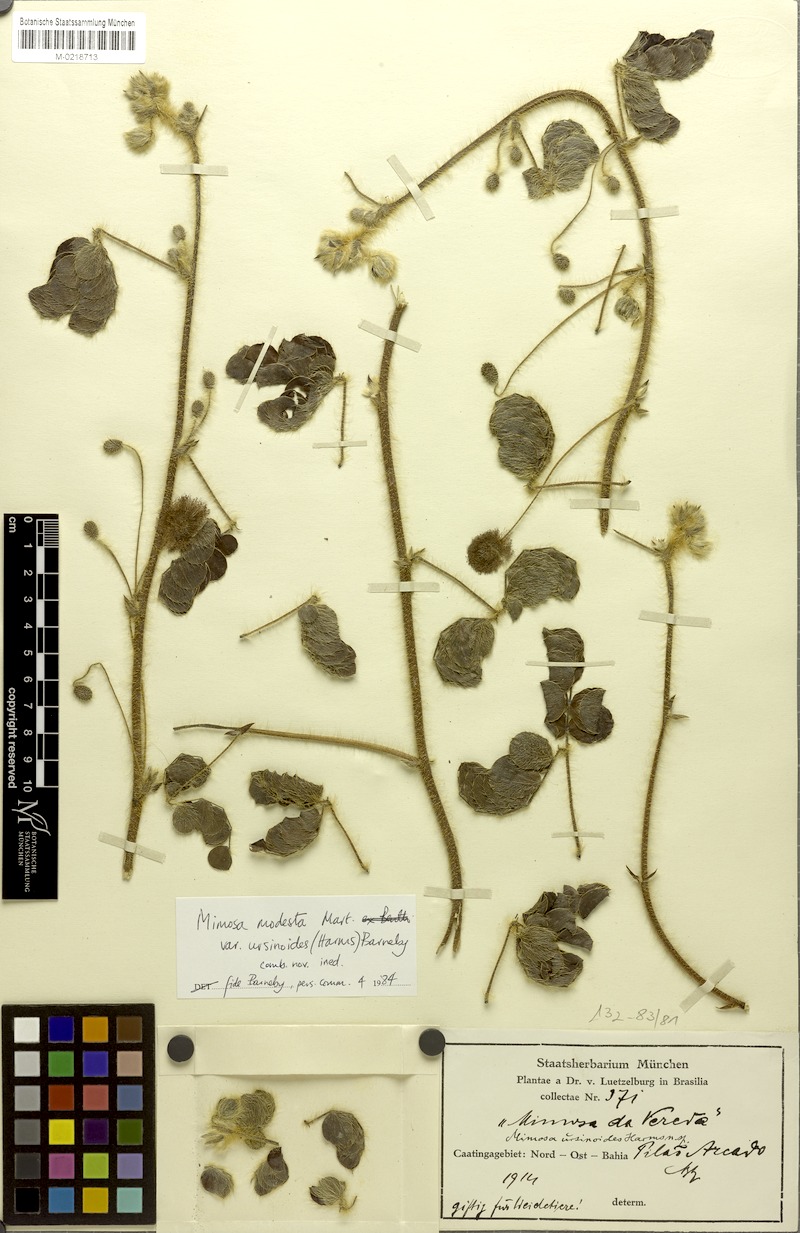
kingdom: Plantae
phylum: Tracheophyta
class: Magnoliopsida
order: Fabales
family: Fabaceae
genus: Mimosa
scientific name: Mimosa modesta
